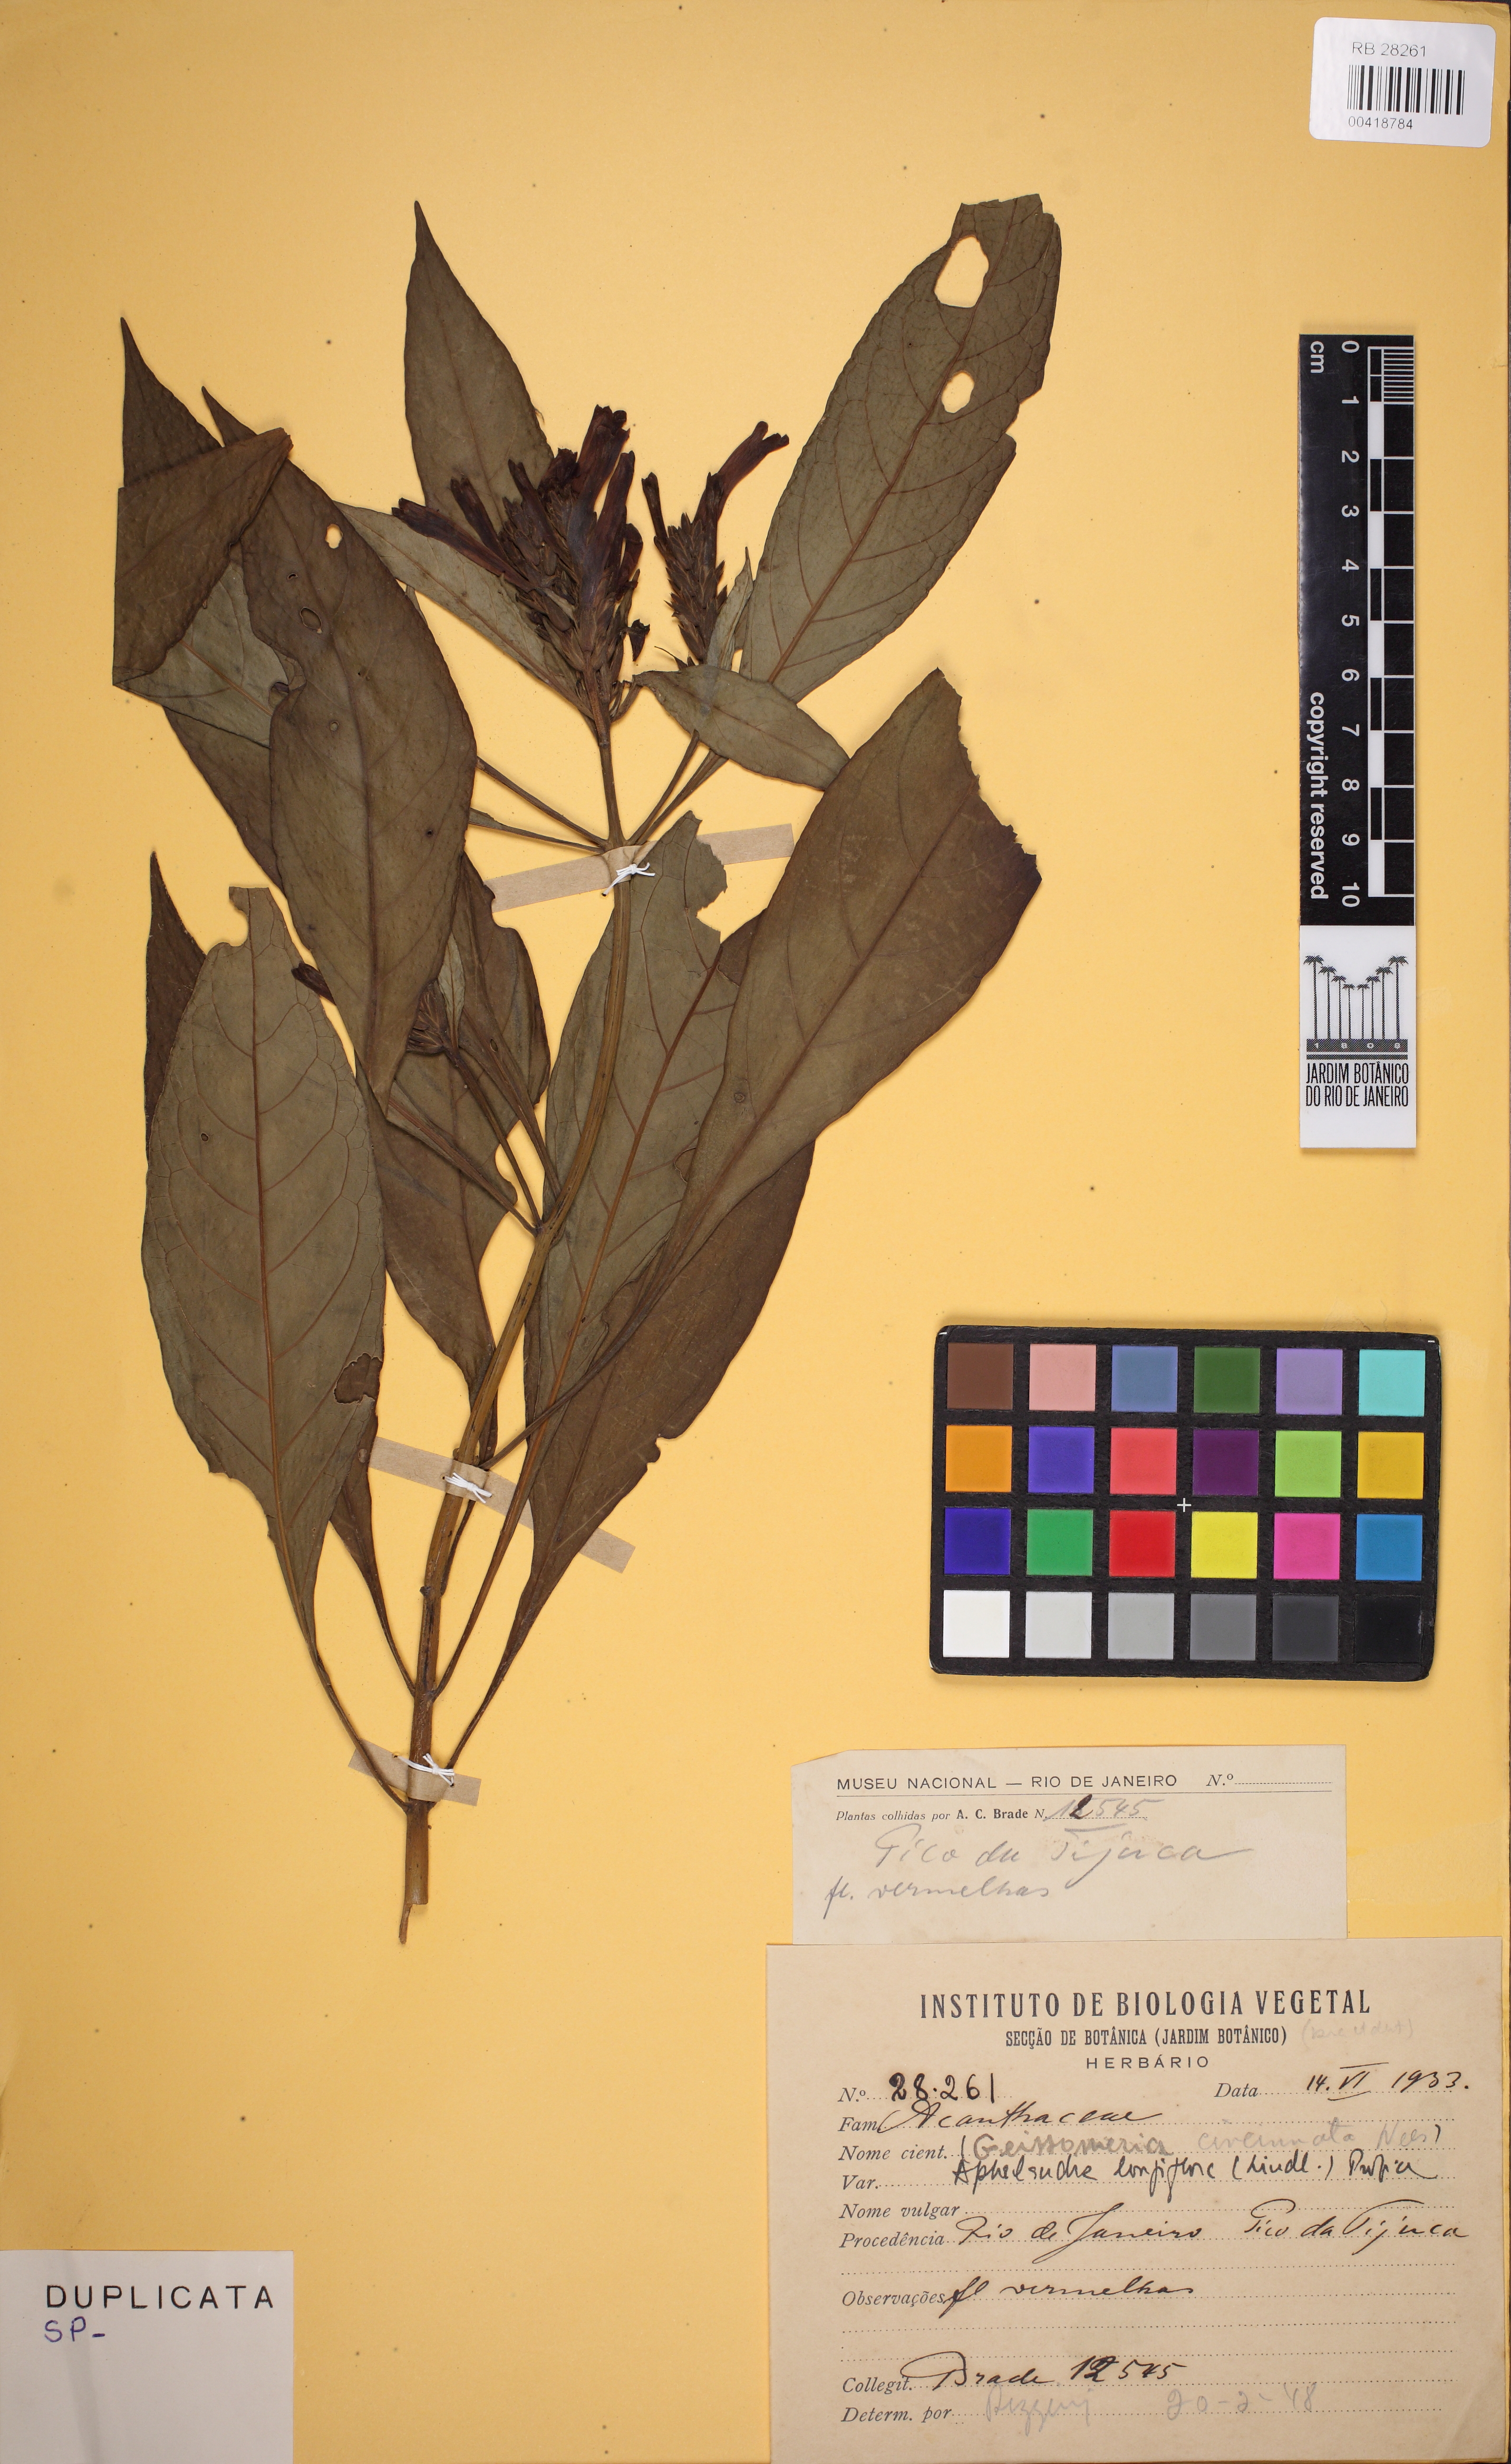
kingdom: Plantae
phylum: Tracheophyta
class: Magnoliopsida
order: Lamiales
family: Acanthaceae
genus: Aphelandra
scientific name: Aphelandra longiflora
